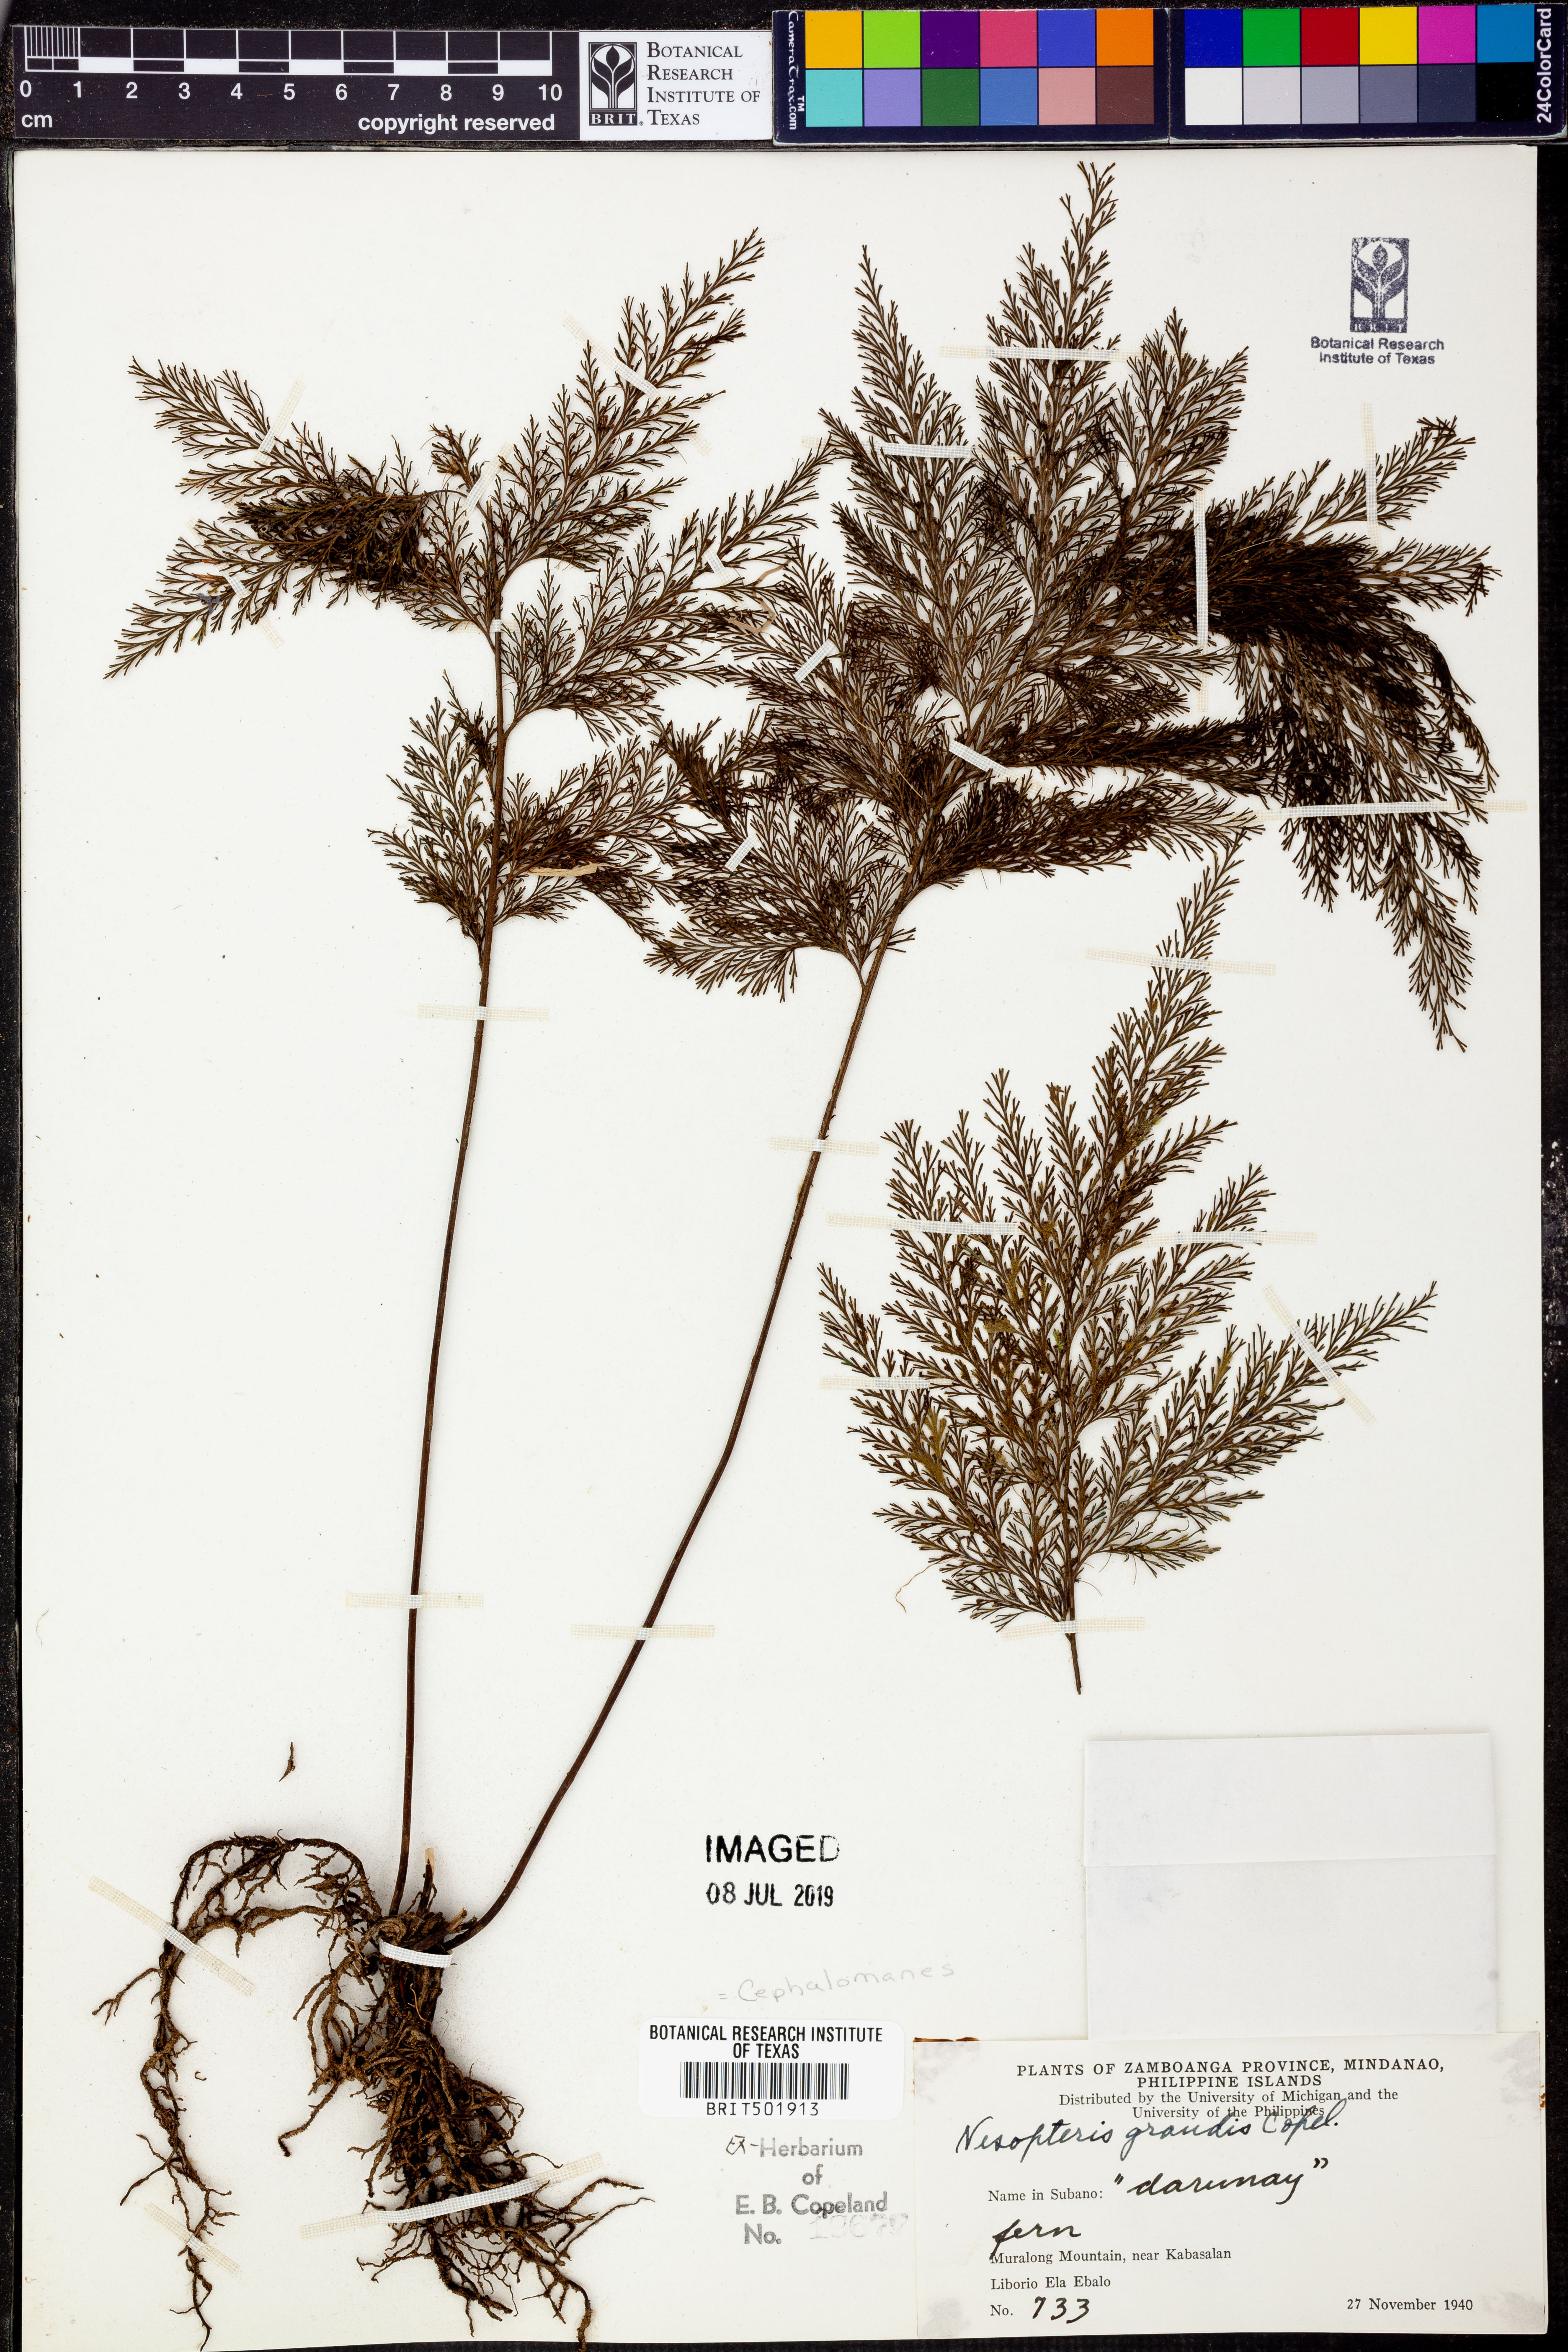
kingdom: Plantae
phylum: Tracheophyta
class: Polypodiopsida
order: Hymenophyllales
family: Hymenophyllaceae
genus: Crepidomanes
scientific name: Crepidomanes grande
